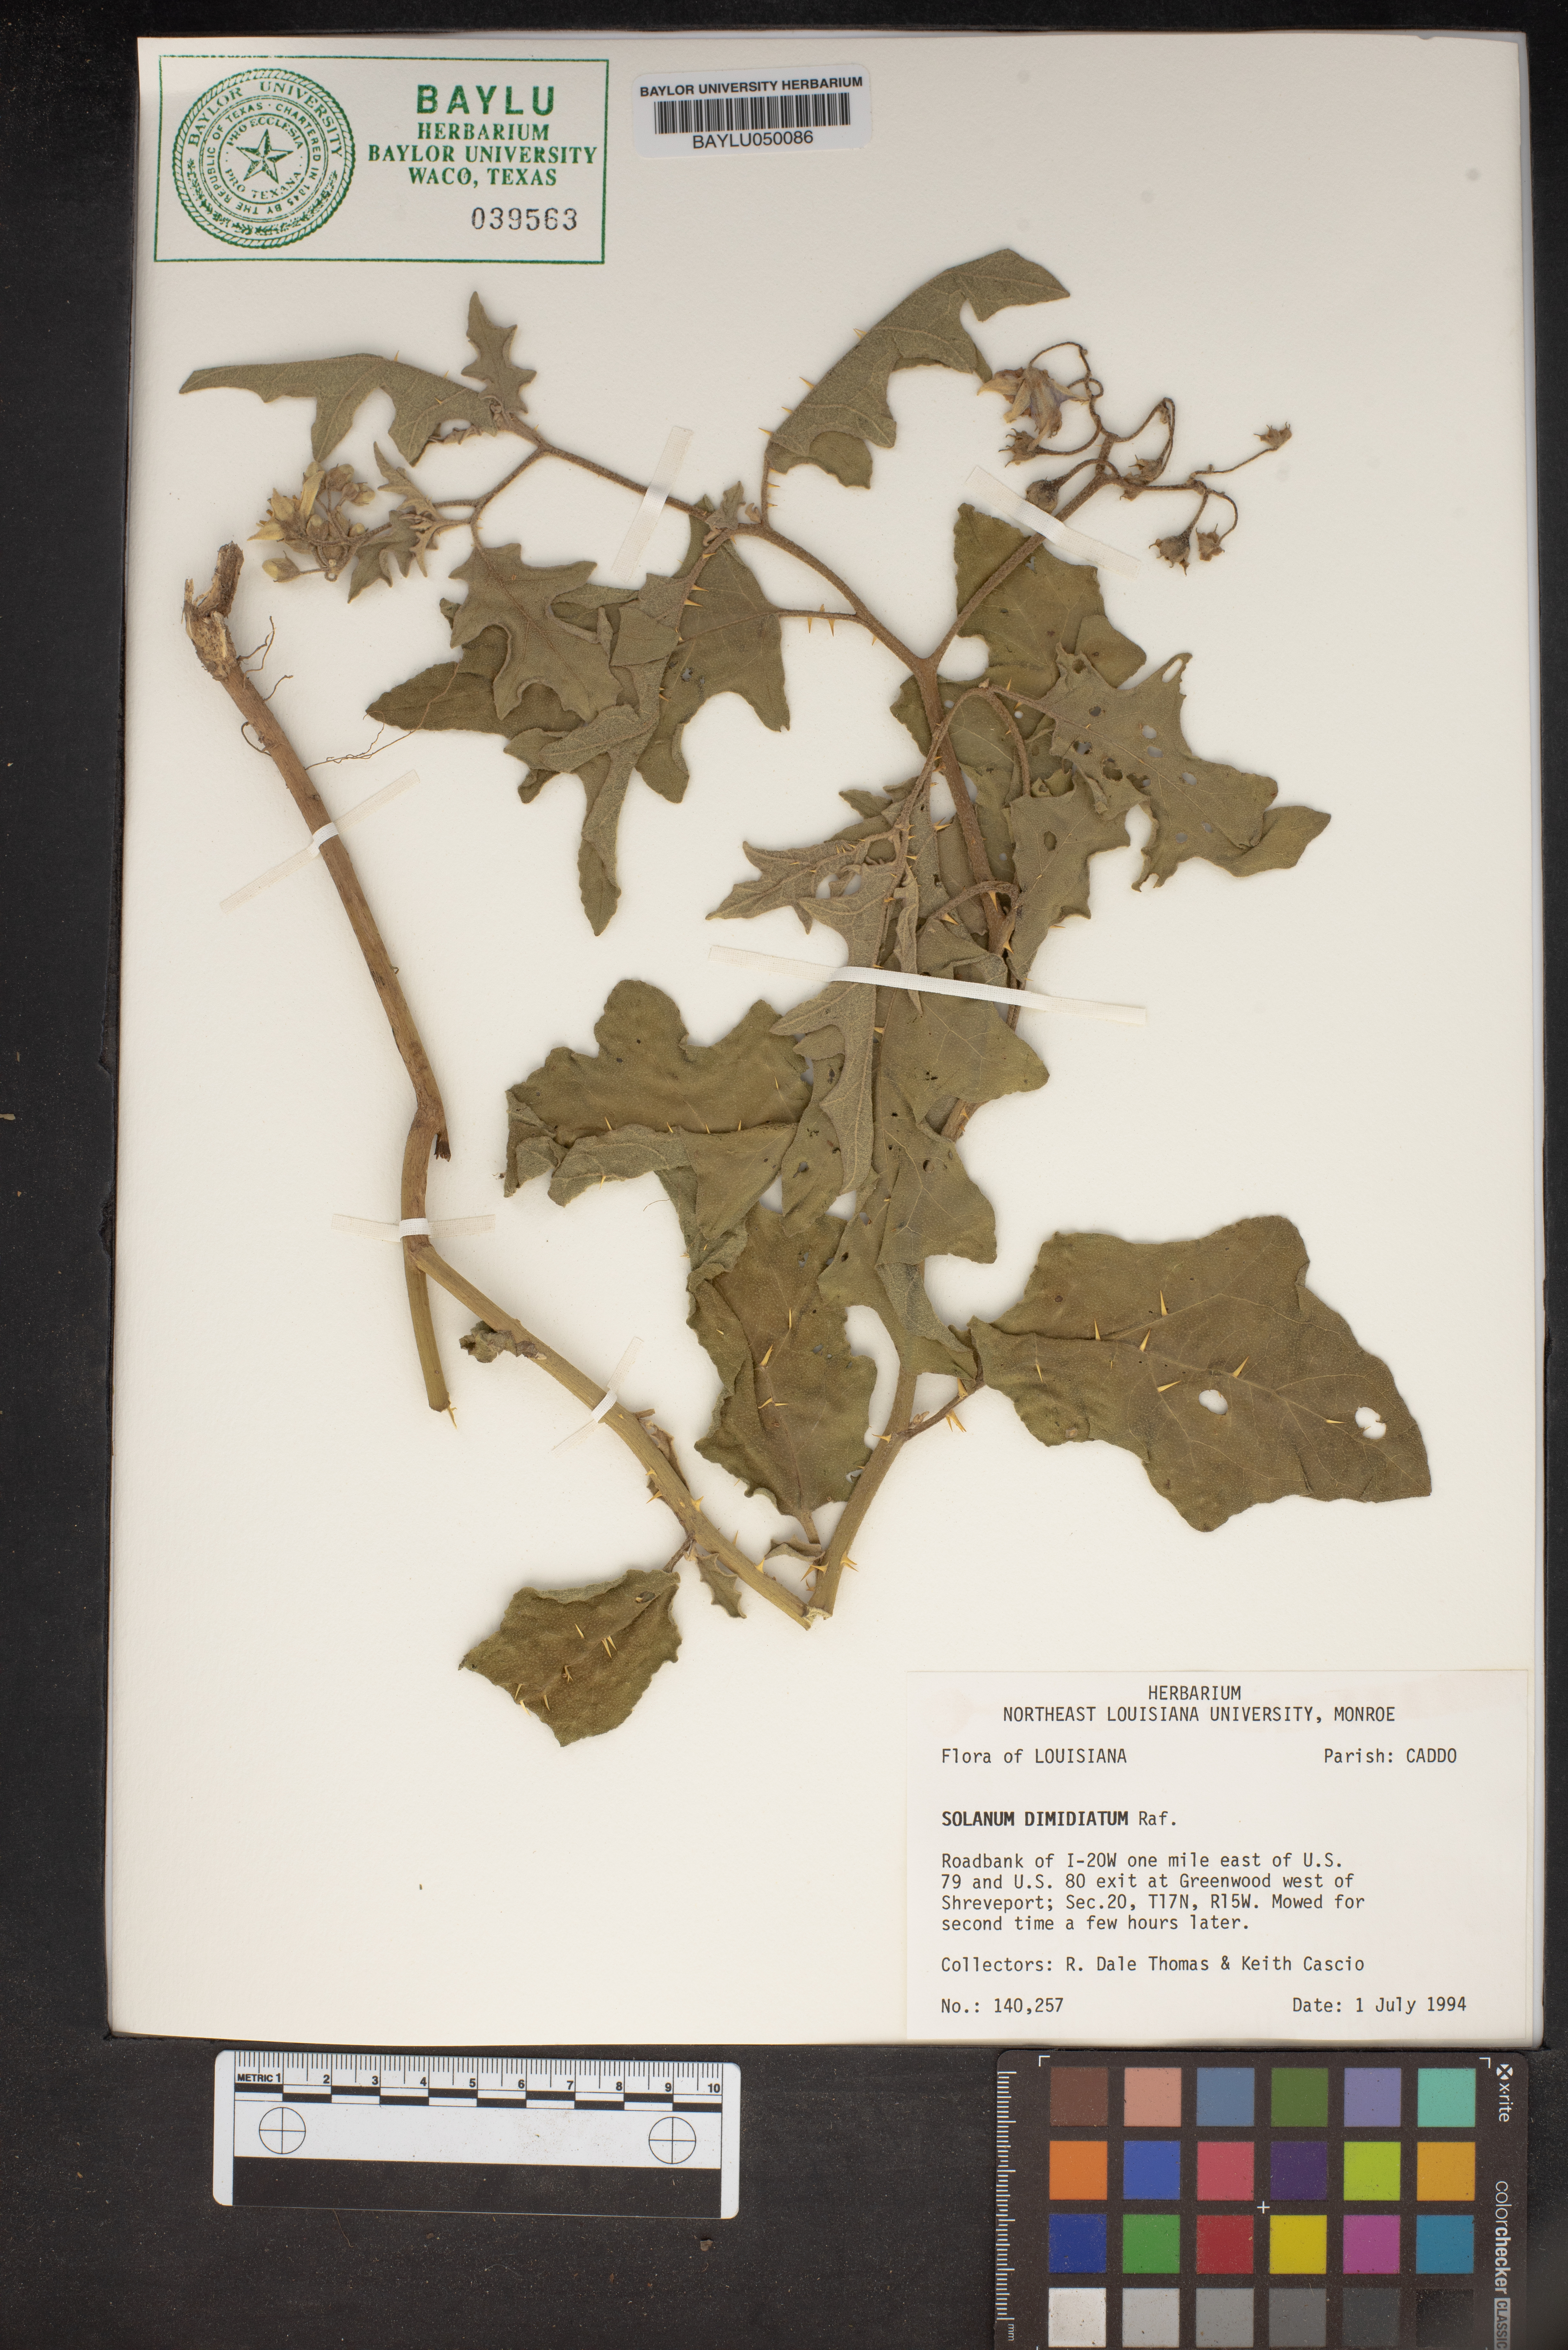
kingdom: Plantae
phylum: Tracheophyta
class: Magnoliopsida
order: Solanales
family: Solanaceae
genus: Solanum
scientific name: Solanum dimidiatum
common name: Carolina horse-nettle
